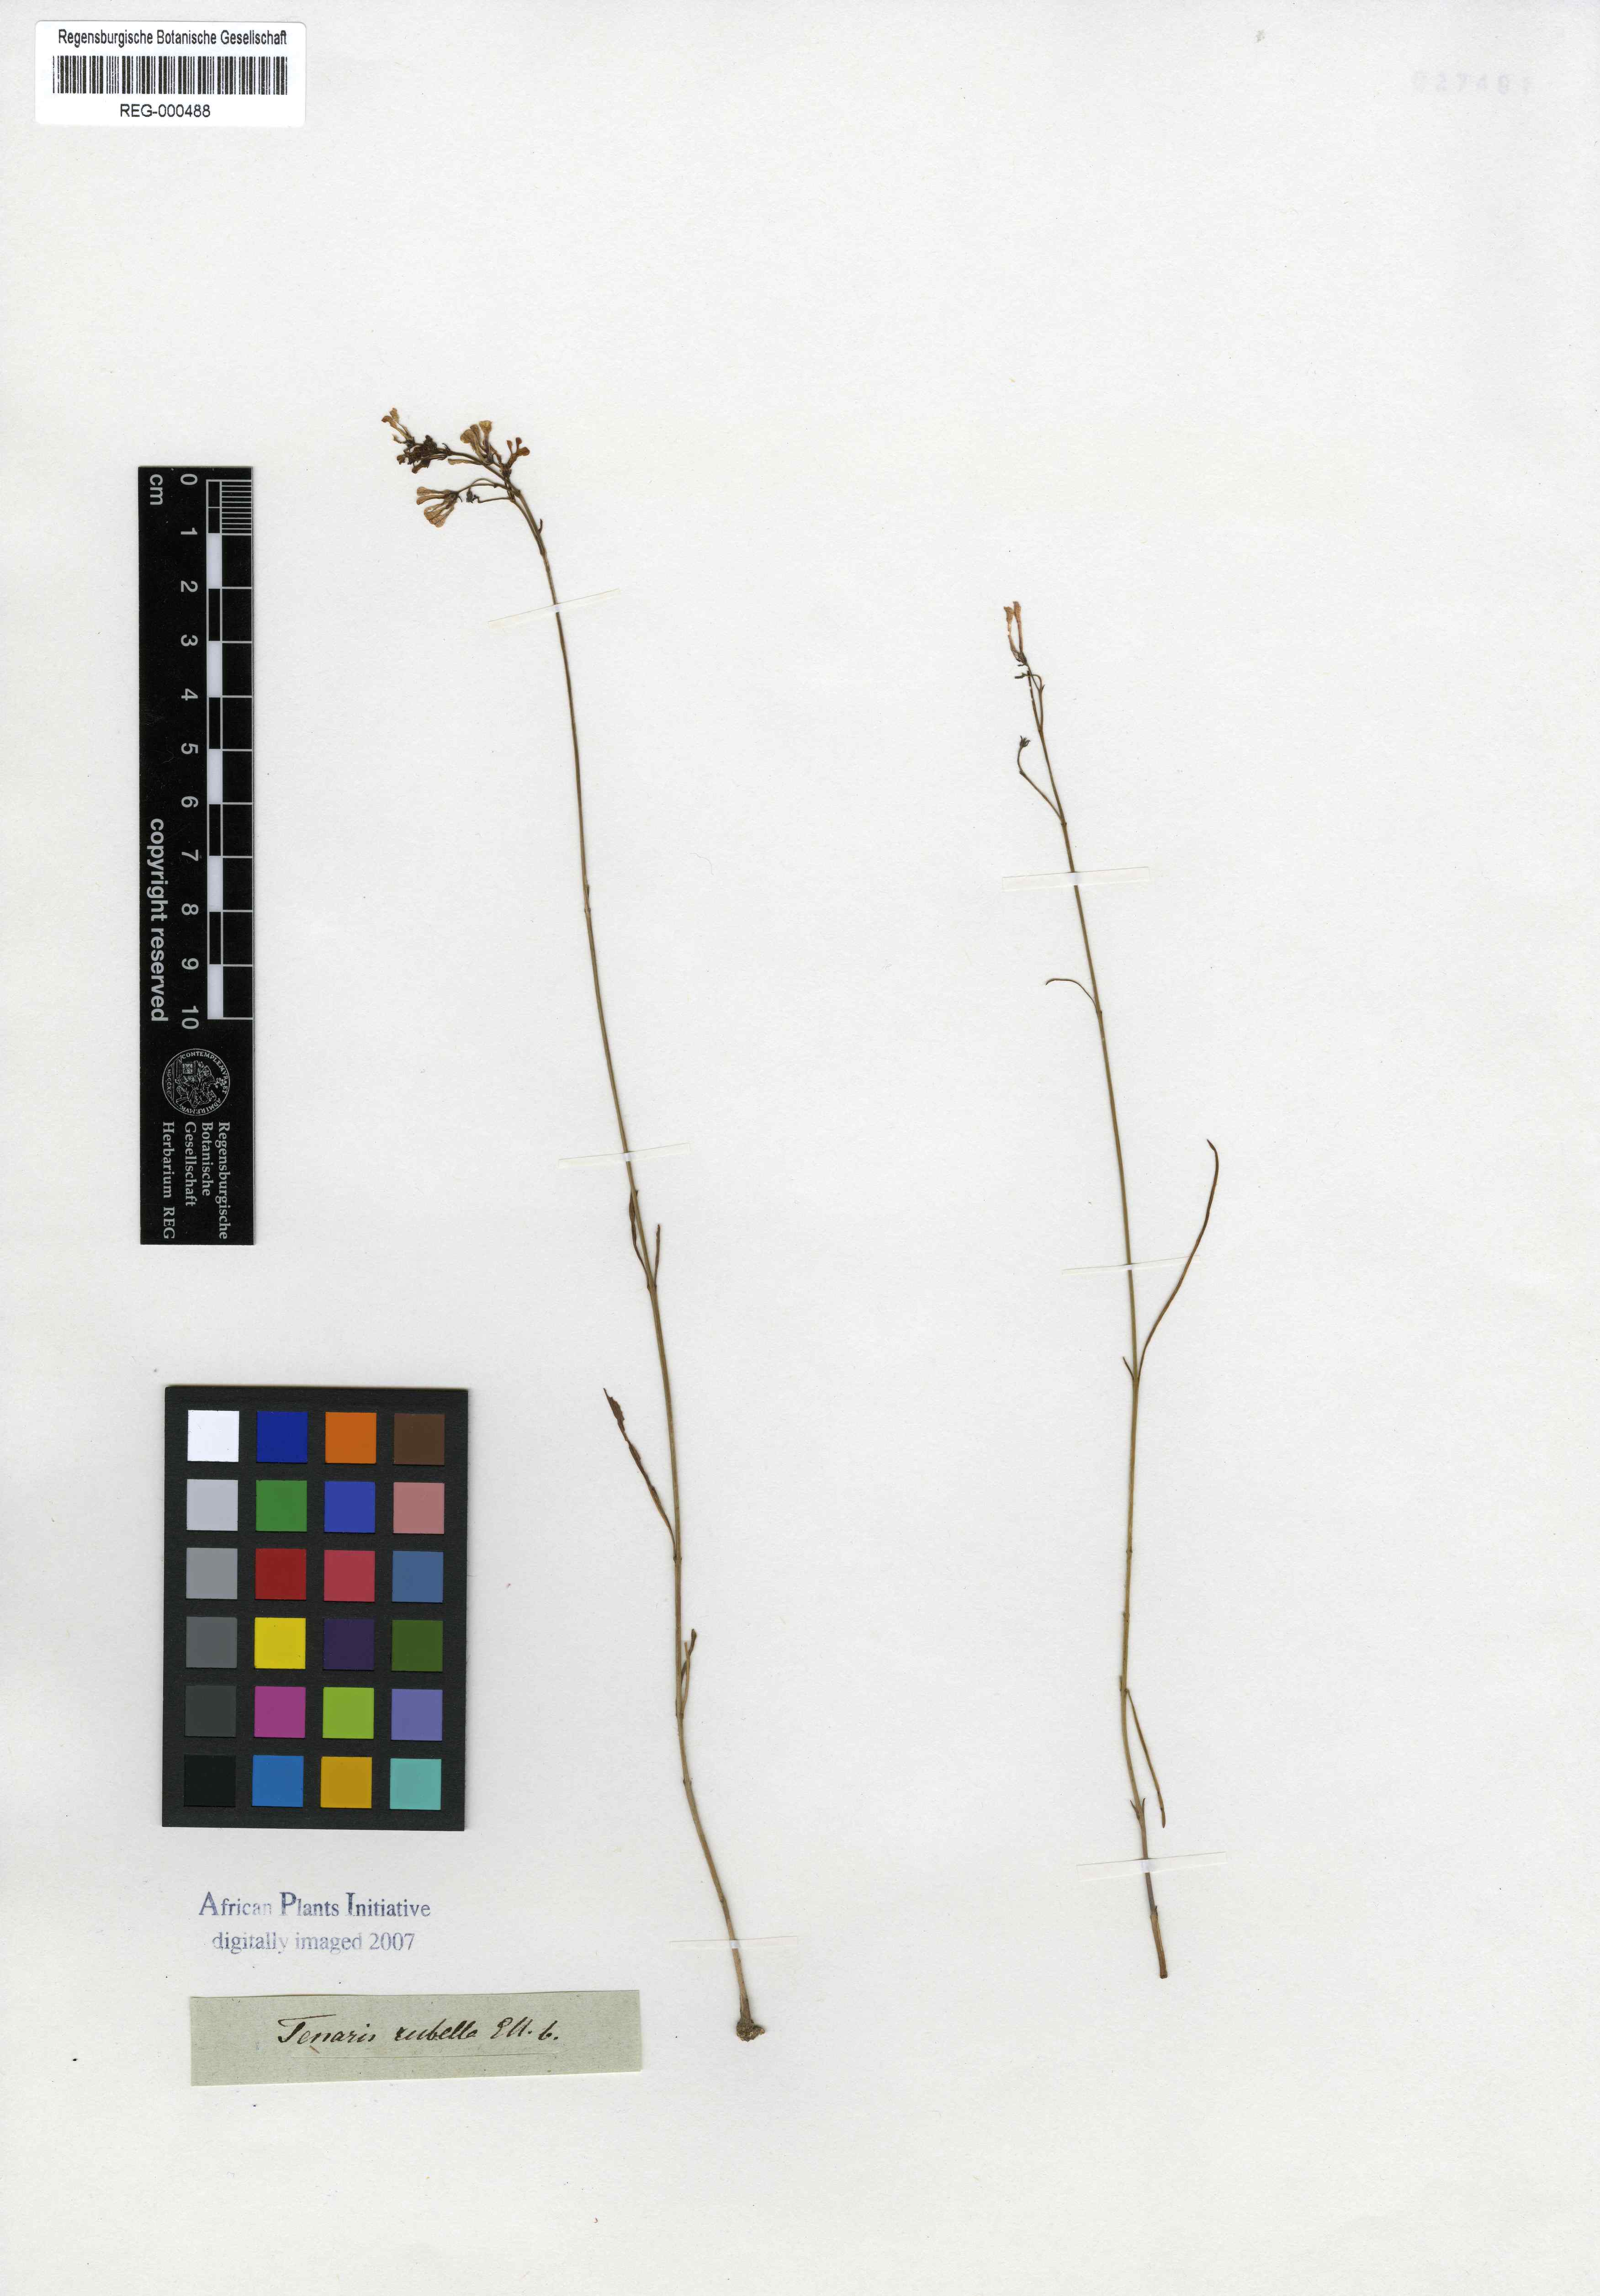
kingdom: Plantae
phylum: Tracheophyta
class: Magnoliopsida
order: Gentianales
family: Apocynaceae
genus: Ceropegia
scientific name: Ceropegia rubella
